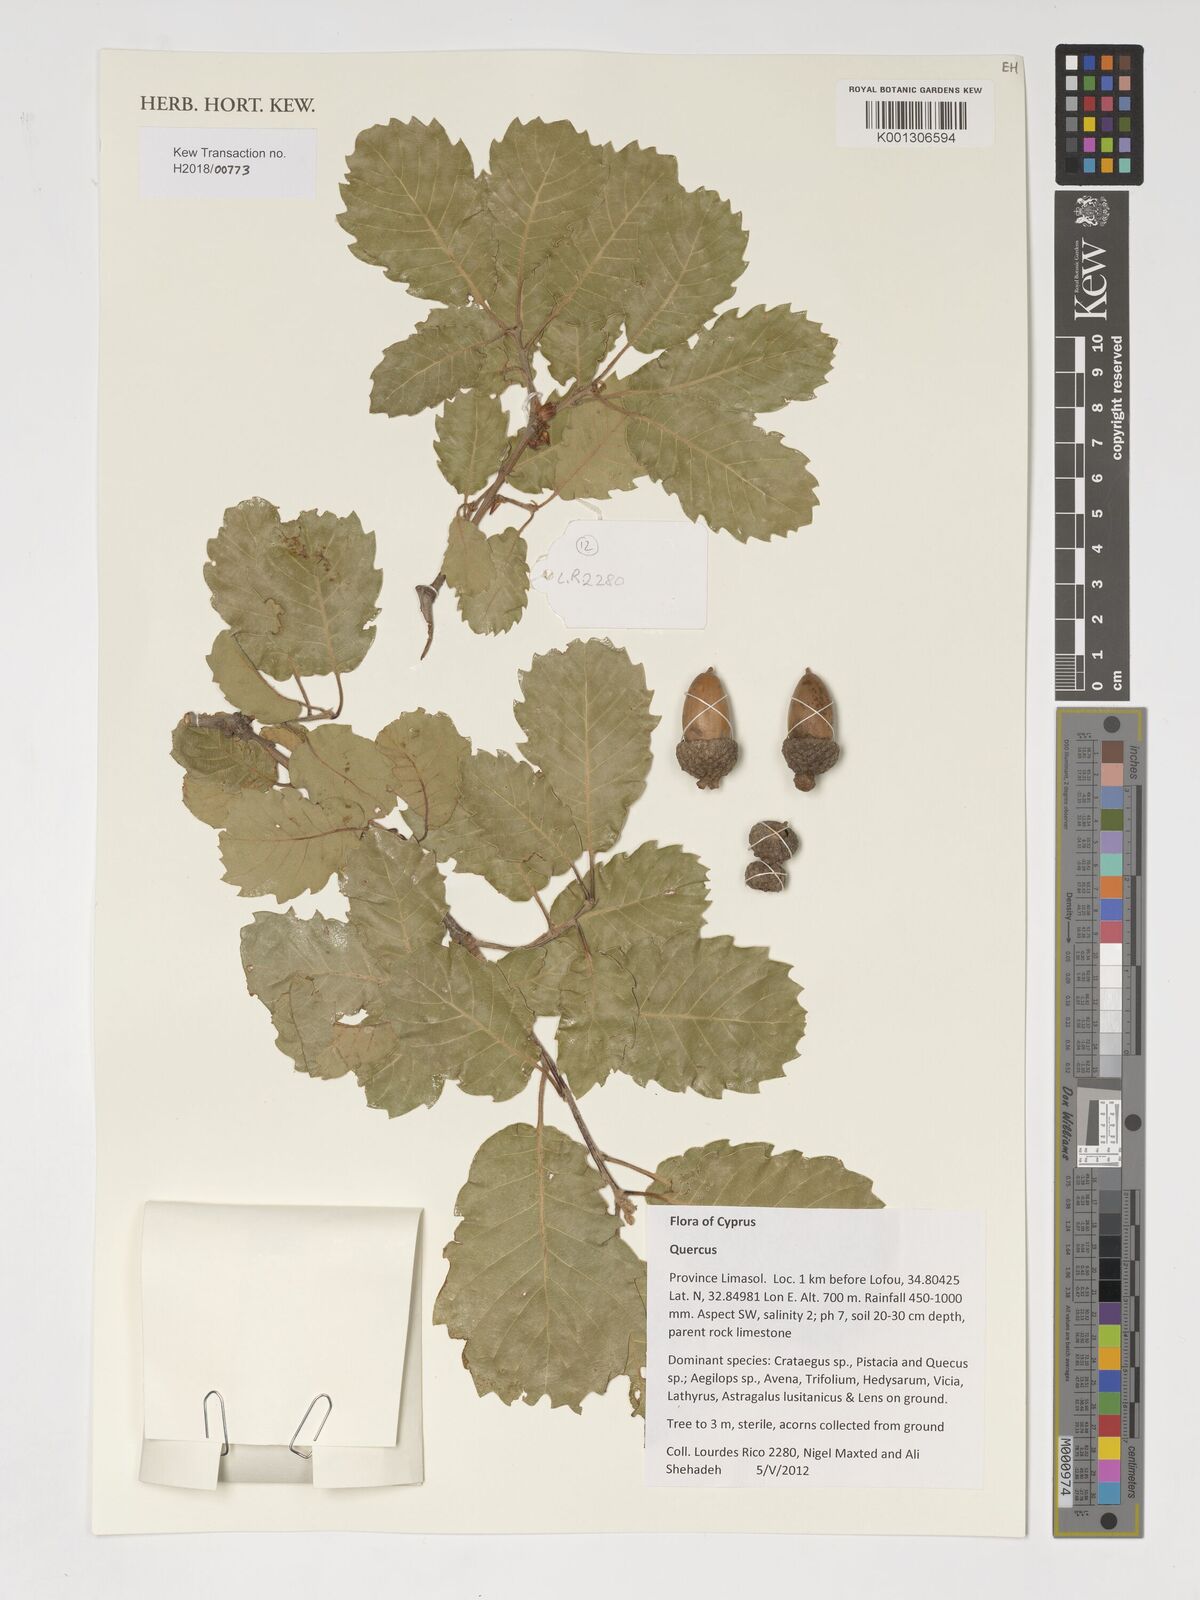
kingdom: Plantae
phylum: Tracheophyta
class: Magnoliopsida
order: Fagales
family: Fagaceae
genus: Quercus
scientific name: Quercus
